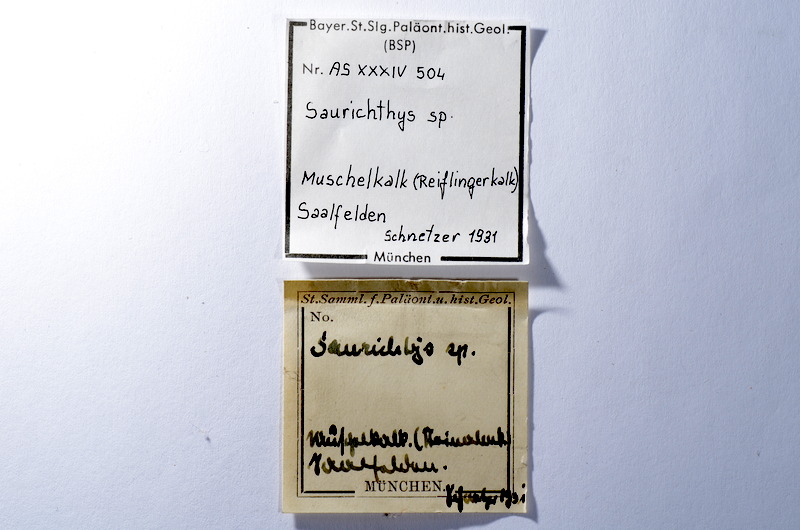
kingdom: Animalia
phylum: Chordata
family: Saurichthyidae
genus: Saurichthys
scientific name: Saurichthys
